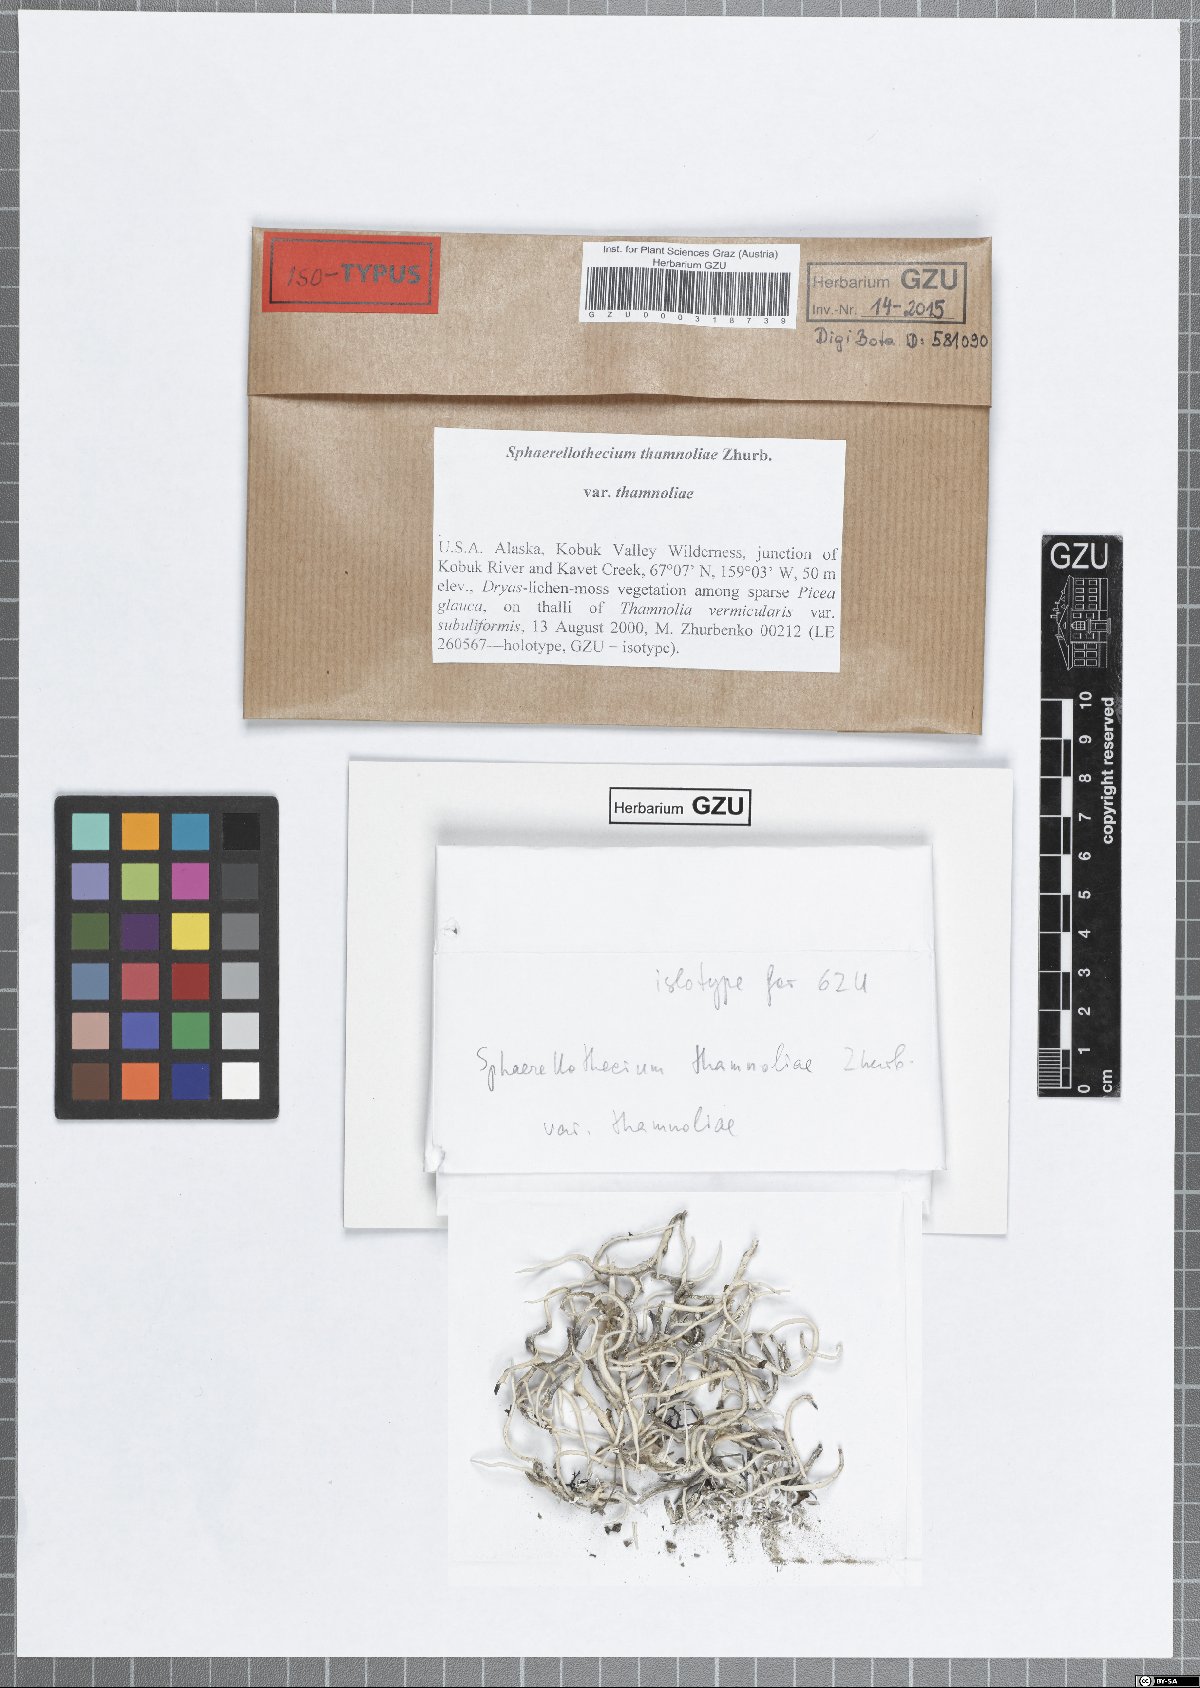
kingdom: Fungi
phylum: Ascomycota
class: Dothideomycetes
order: Mycosphaerellales
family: Mycosphaerellaceae
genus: Sphaerellothecium
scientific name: Sphaerellothecium thamnoliae
